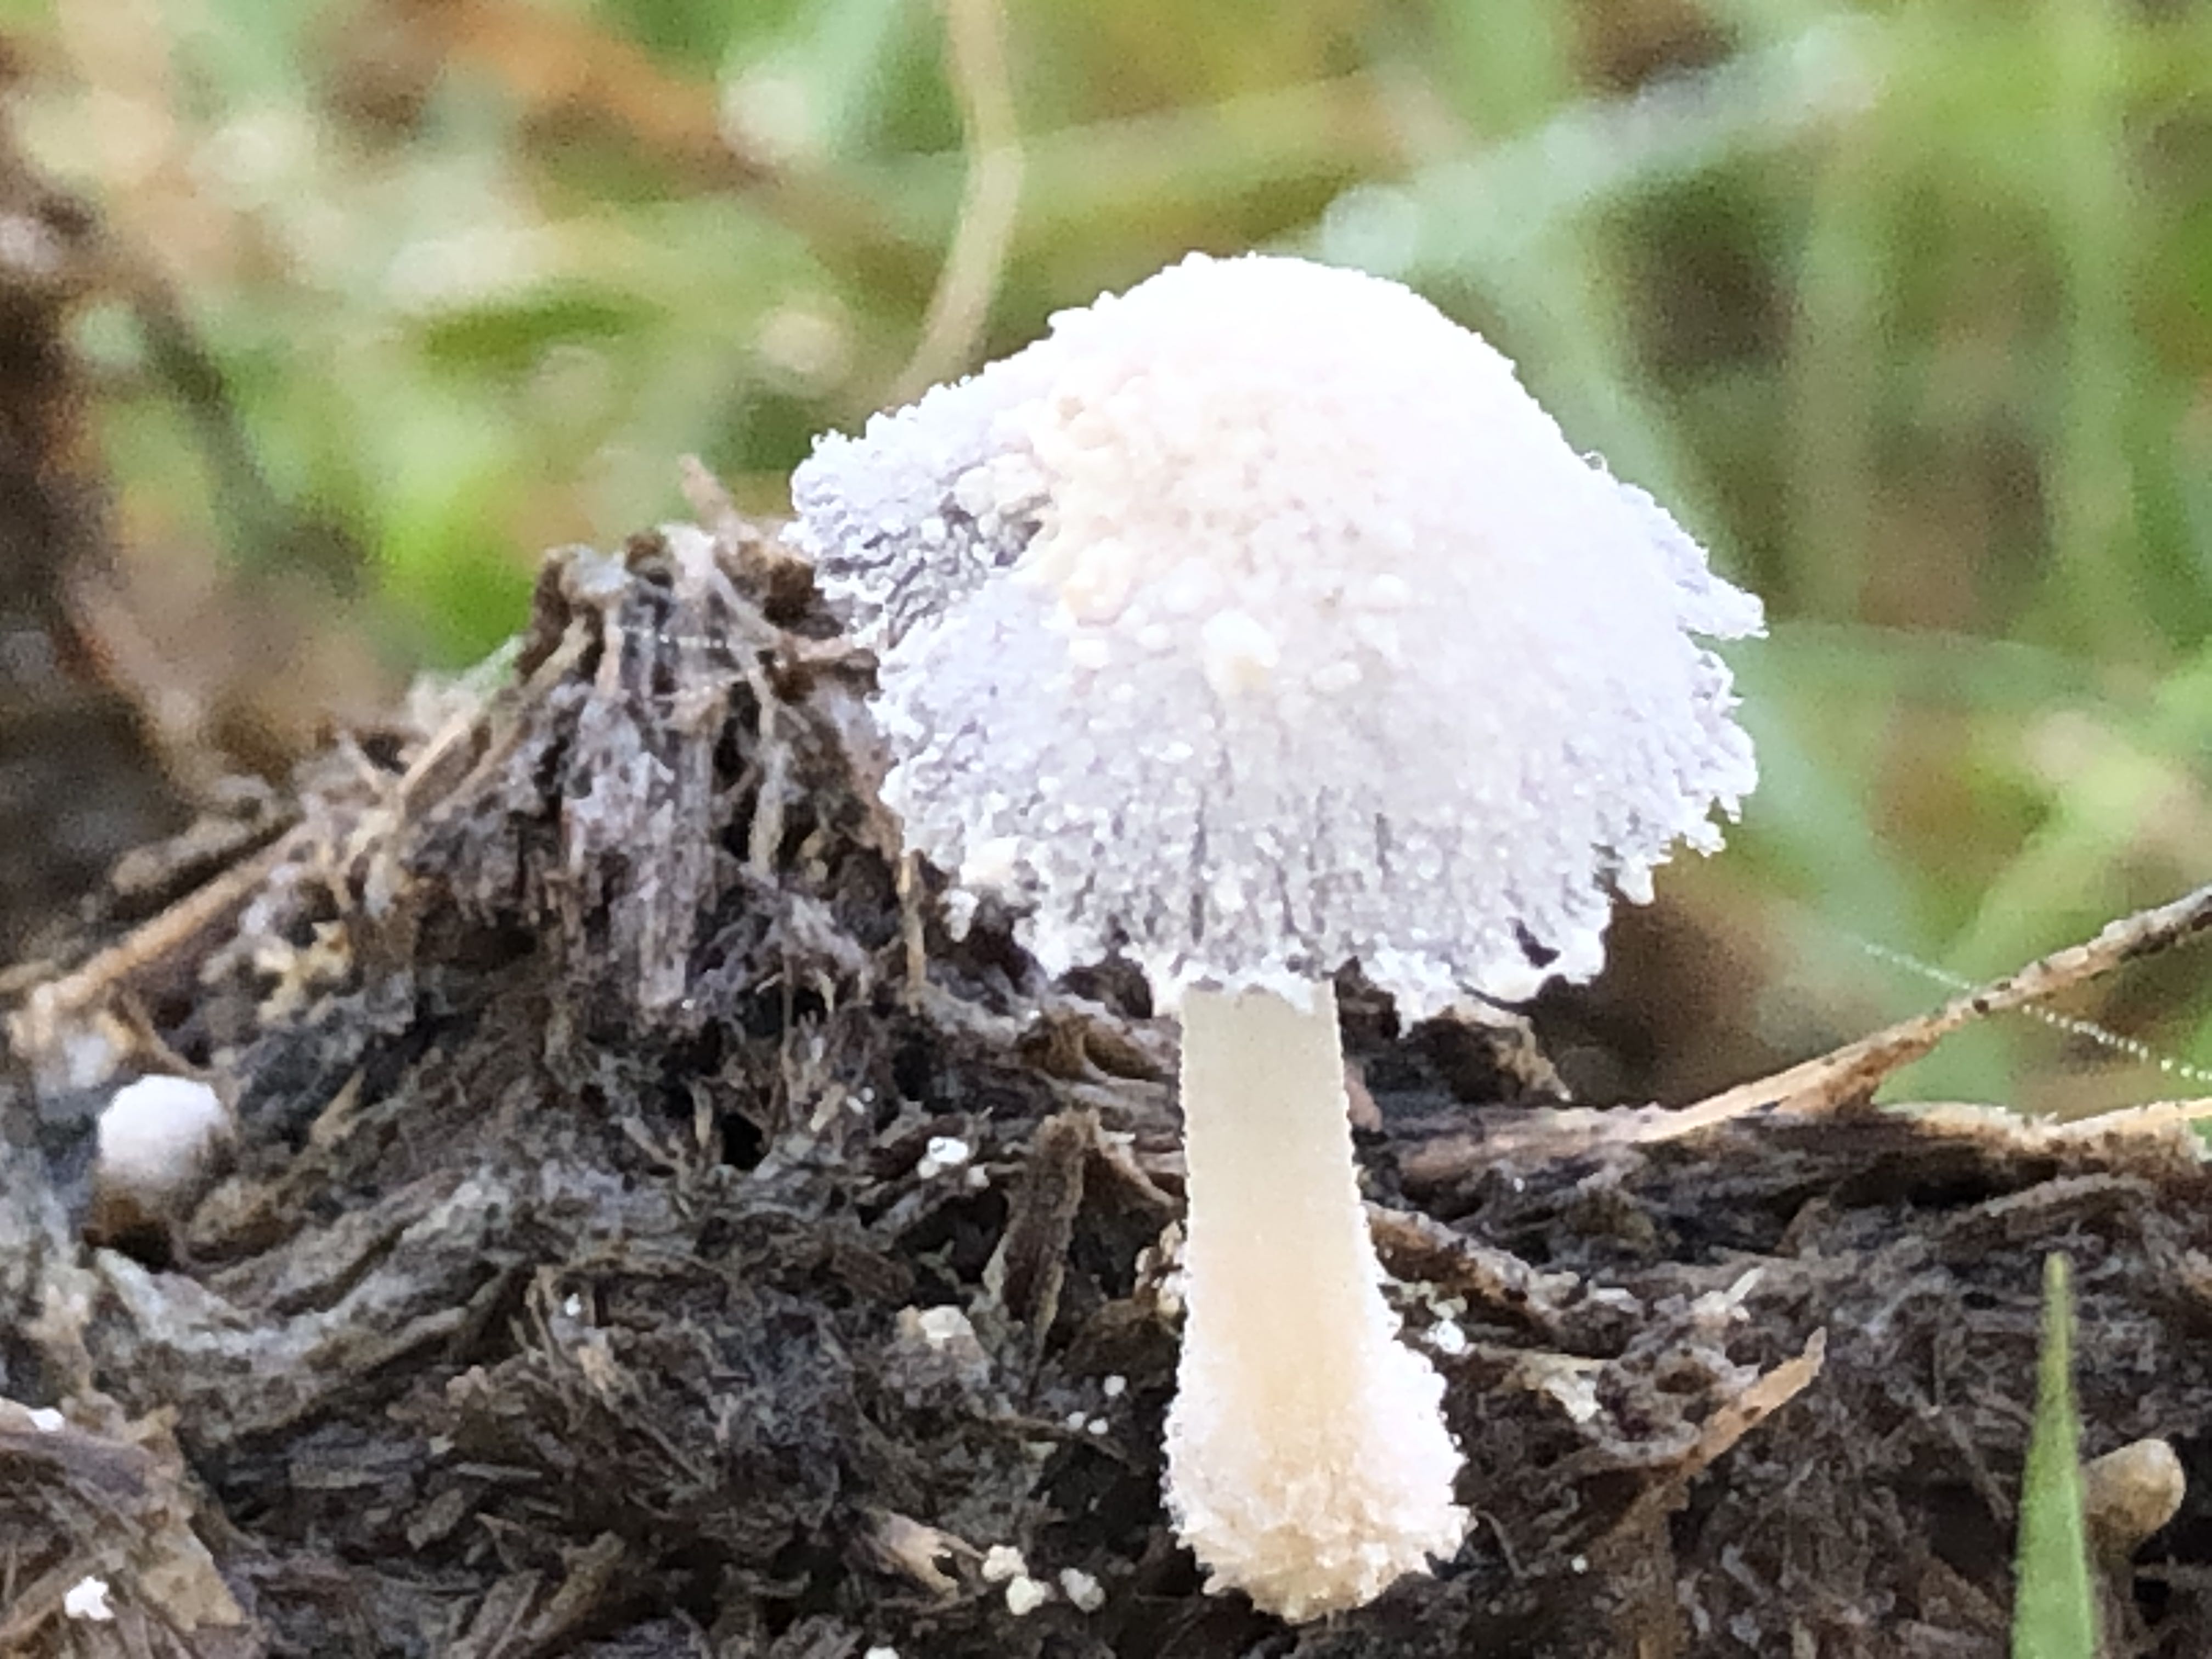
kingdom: Fungi
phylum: Basidiomycota
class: Agaricomycetes
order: Agaricales
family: Psathyrellaceae
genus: Coprinopsis
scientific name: Coprinopsis nivea
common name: snehvid blækhat
